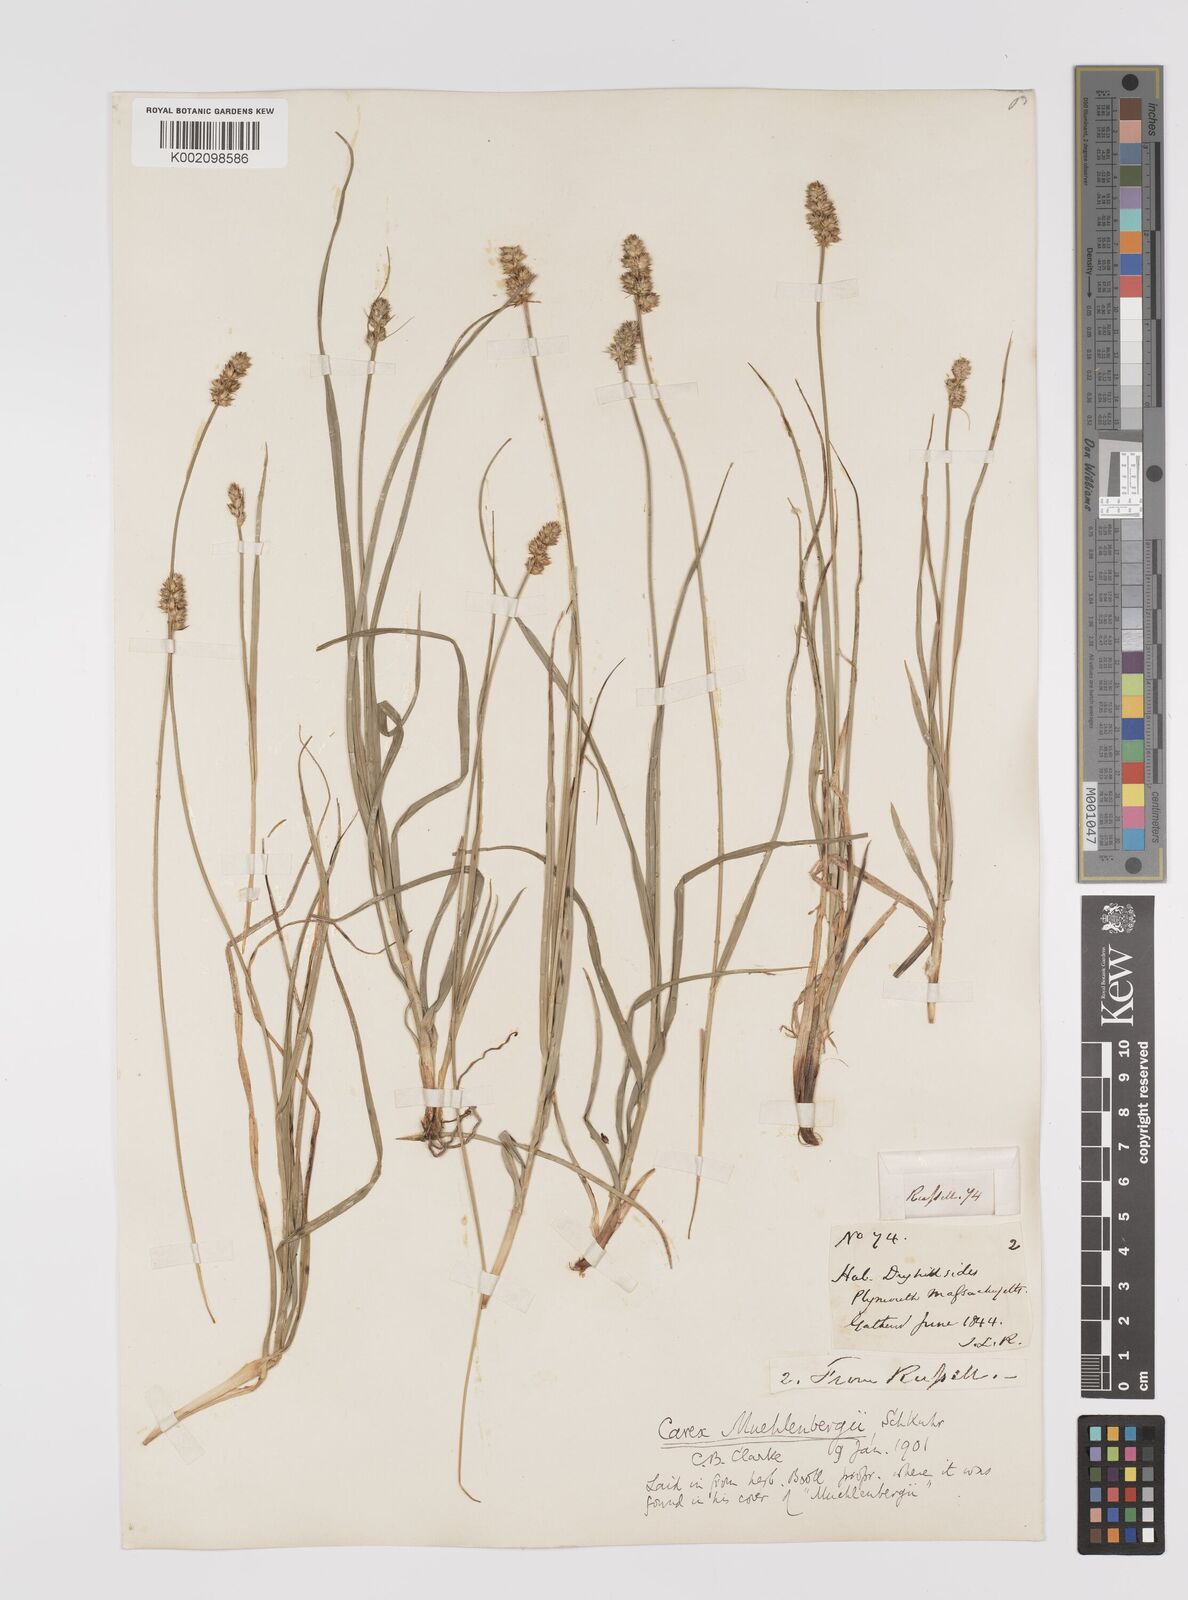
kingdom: Plantae
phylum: Tracheophyta
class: Liliopsida
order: Poales
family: Cyperaceae
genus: Carex
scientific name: Carex vulpinoidea
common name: American fox-sedge
